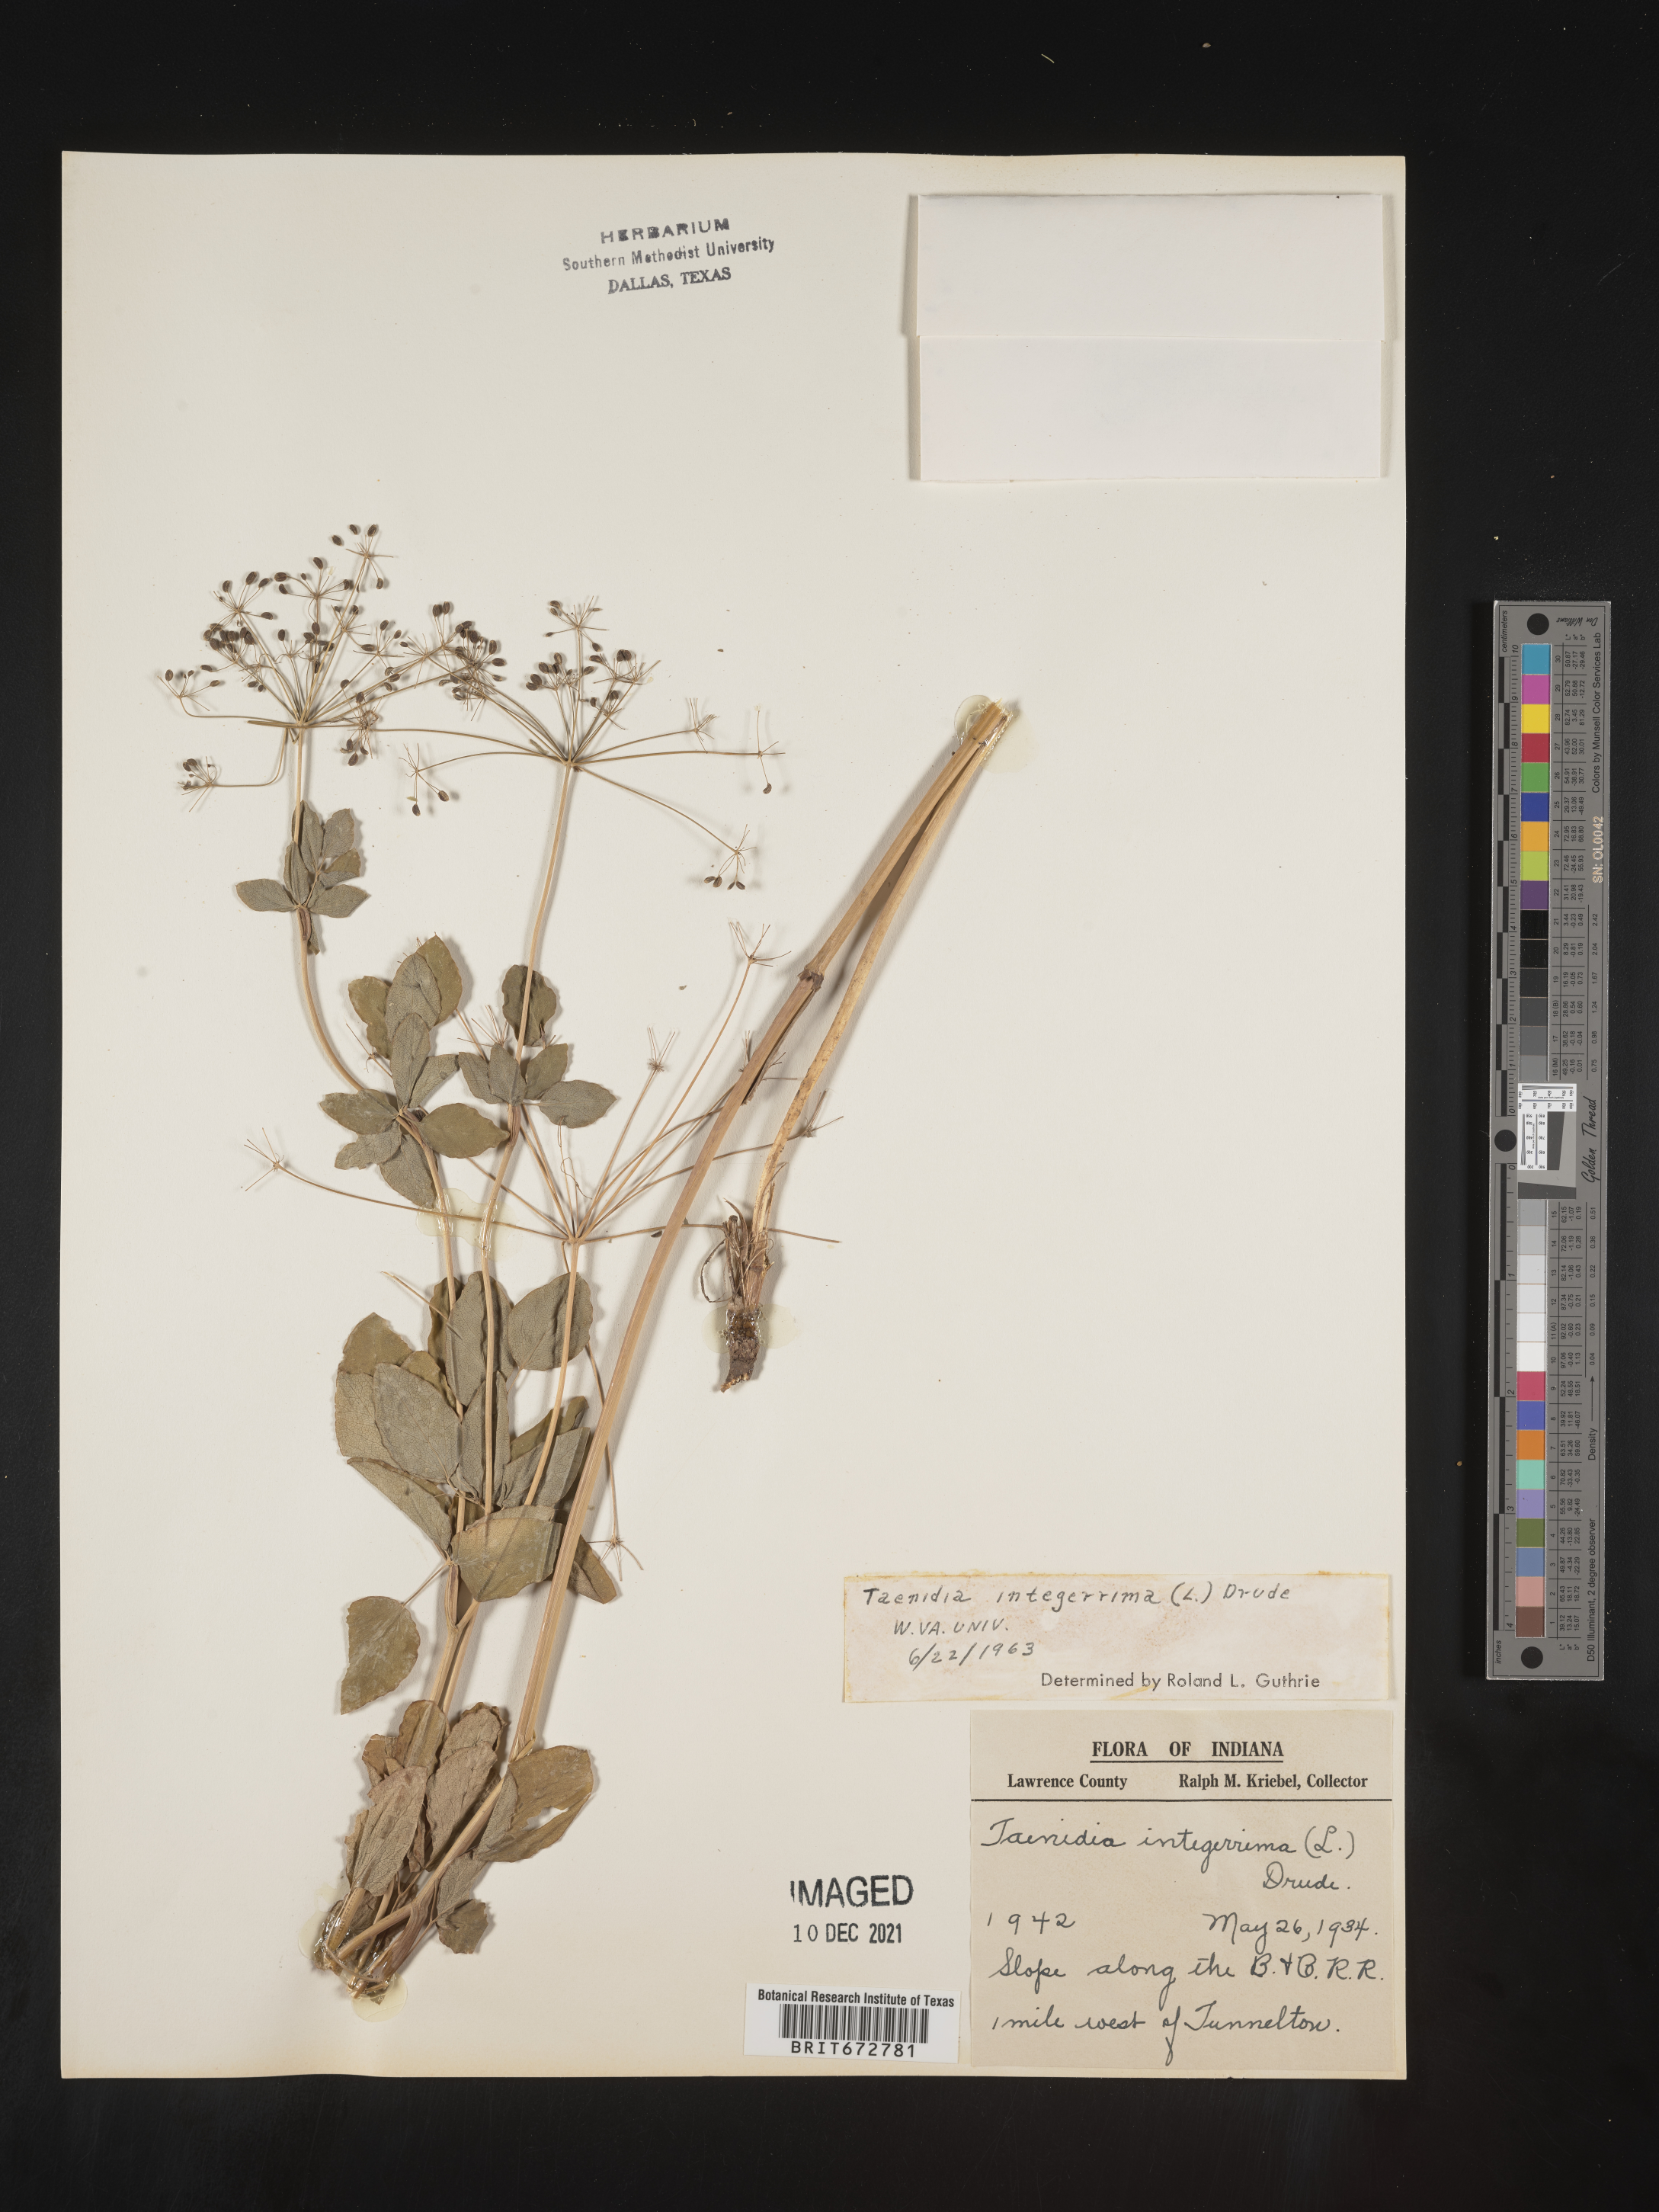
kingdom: Plantae
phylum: Tracheophyta
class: Magnoliopsida
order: Apiales
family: Apiaceae
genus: Taenidia
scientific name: Taenidia integerrima
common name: Golden alexander
